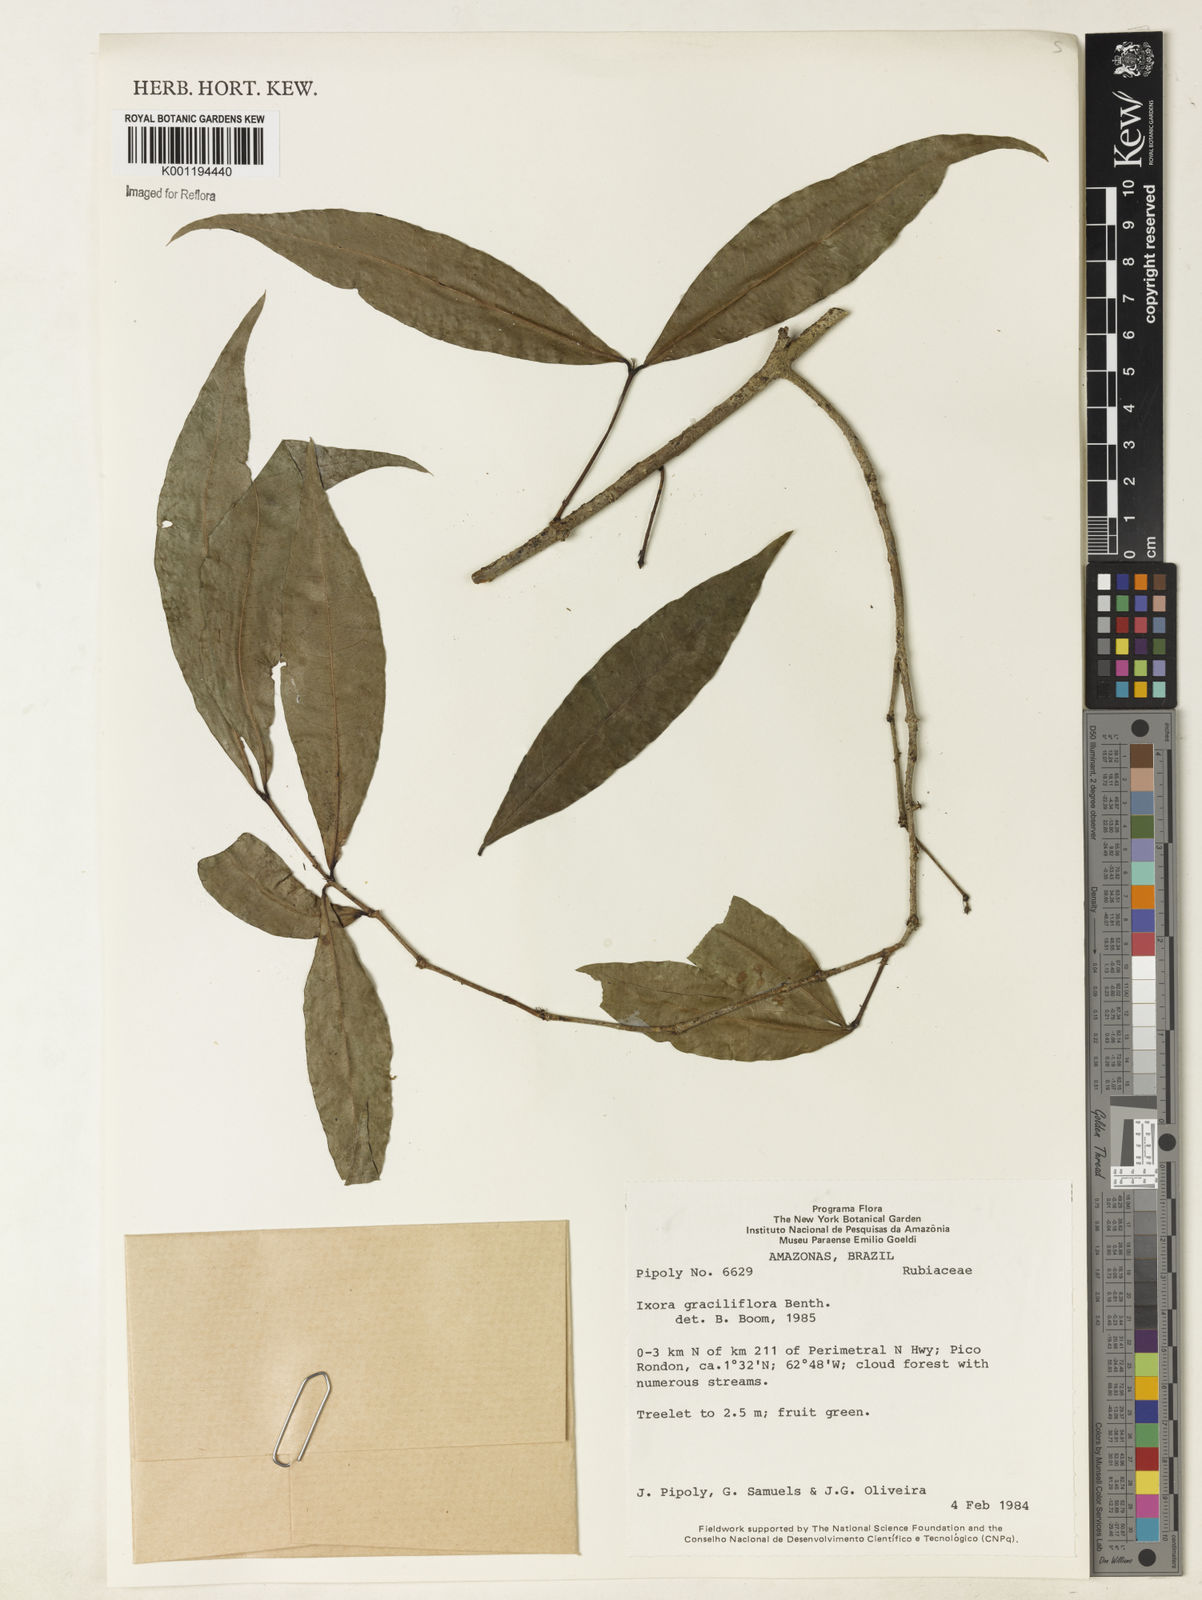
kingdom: Plantae
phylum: Tracheophyta
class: Magnoliopsida
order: Gentianales
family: Rubiaceae
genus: Ixora
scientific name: Ixora graciliflora
